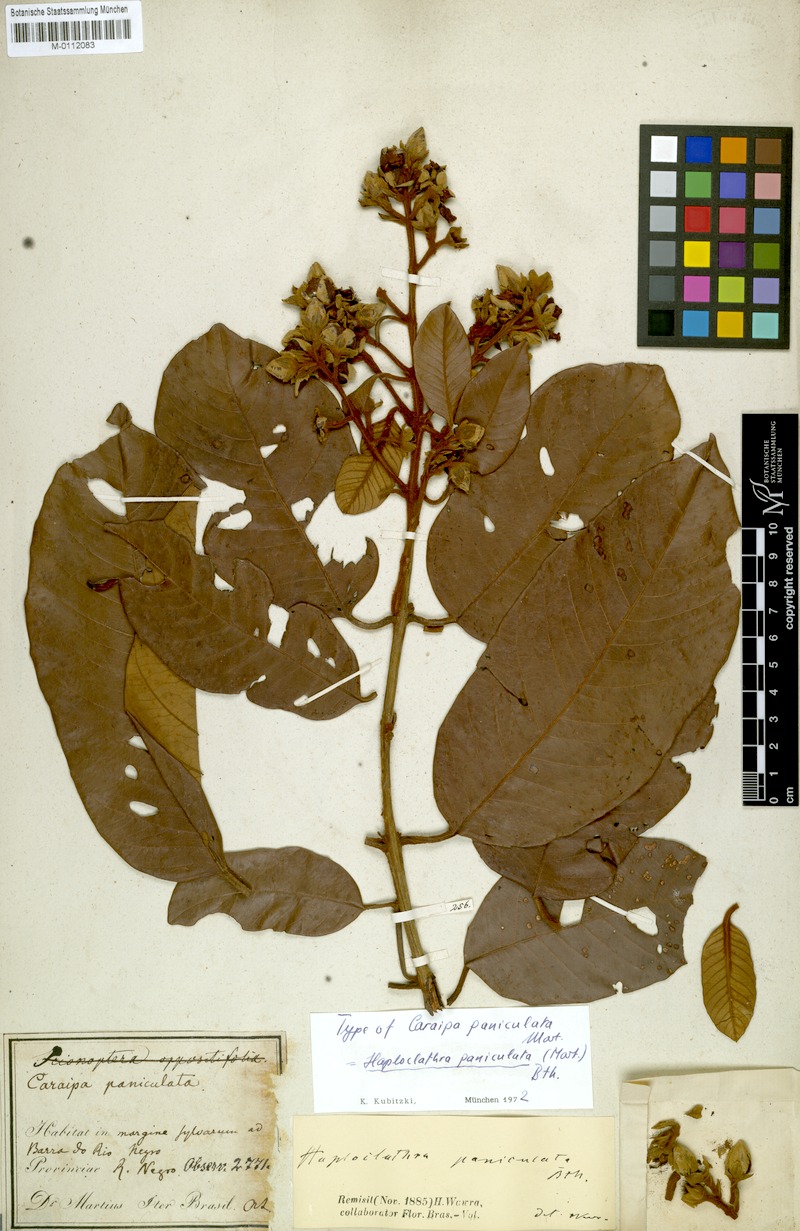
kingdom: Plantae
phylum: Tracheophyta
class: Magnoliopsida
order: Malpighiales
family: Calophyllaceae
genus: Haploclathra
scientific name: Haploclathra paniculata
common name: Red-wood
